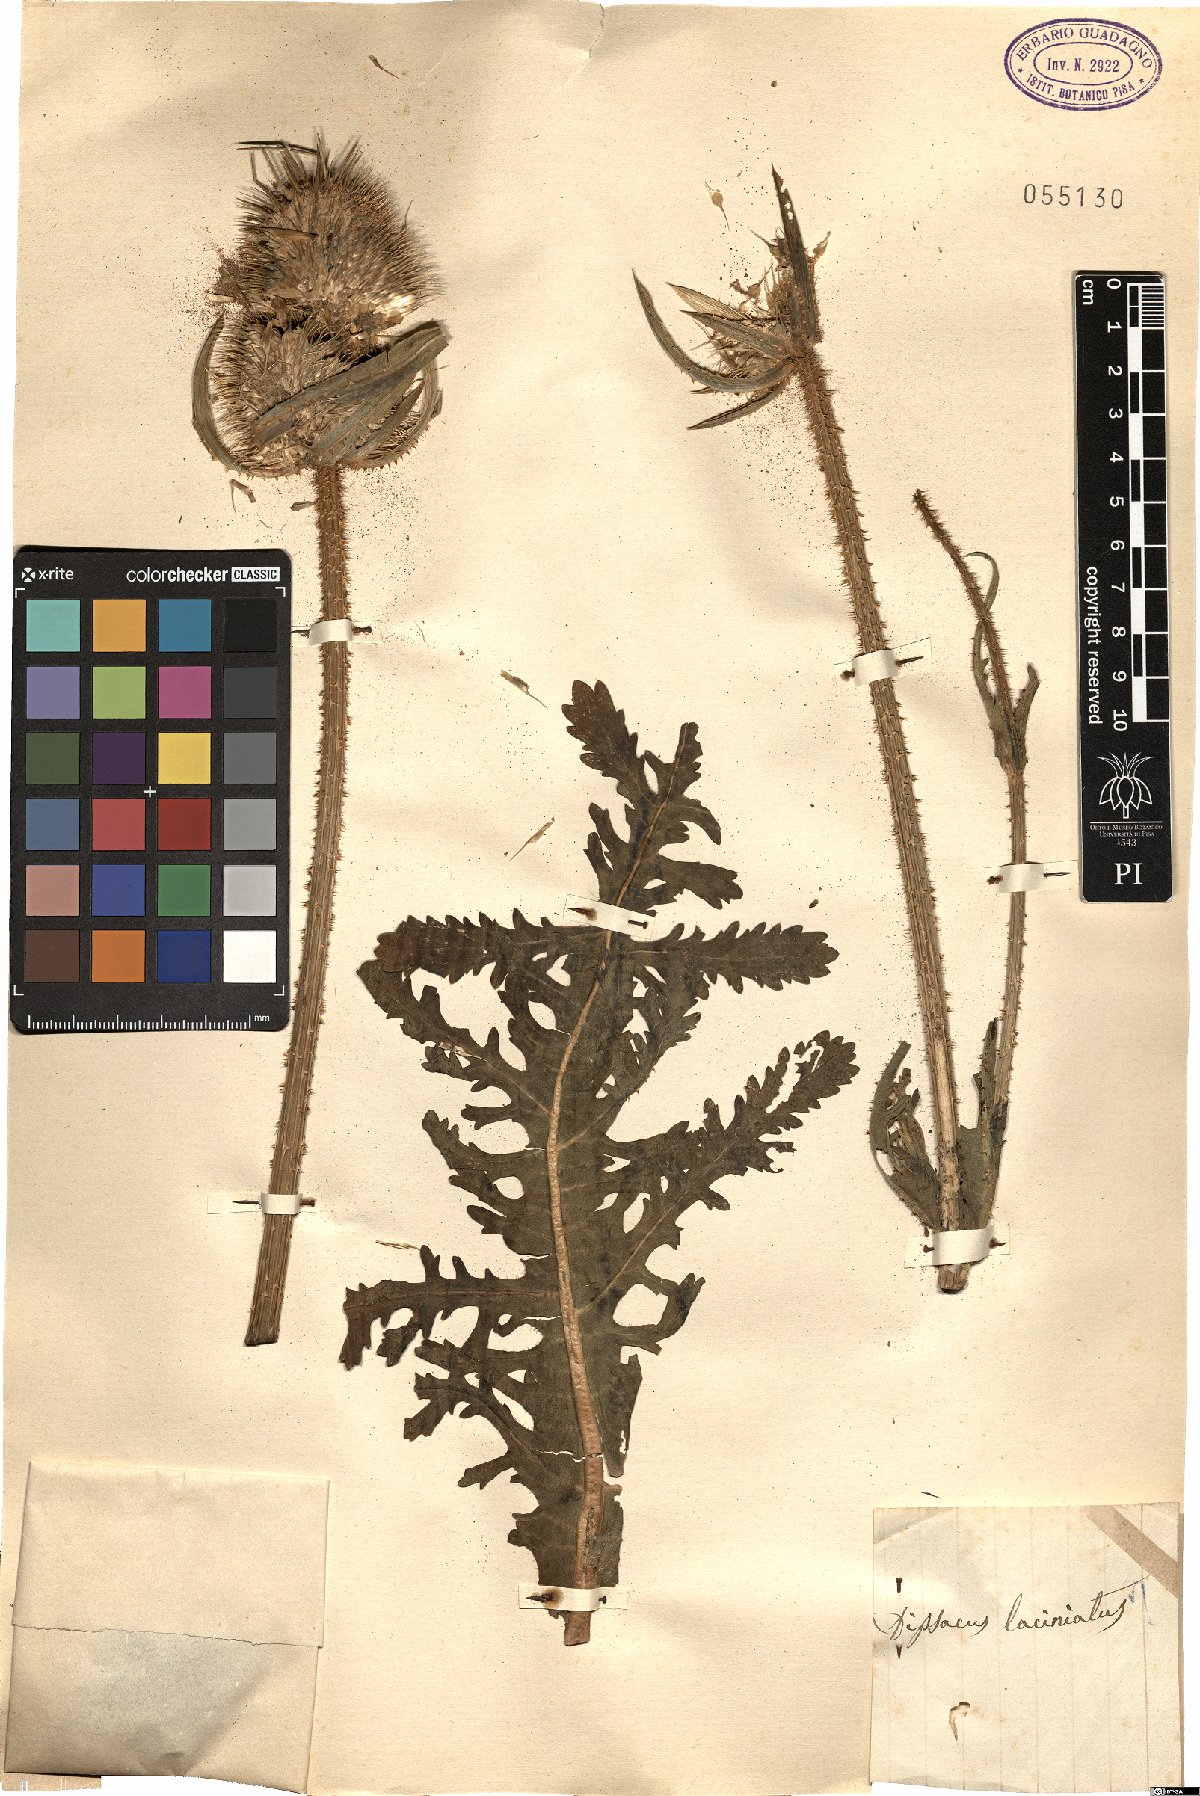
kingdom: Plantae
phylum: Tracheophyta
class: Magnoliopsida
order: Dipsacales
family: Caprifoliaceae
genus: Dipsacus
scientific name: Dipsacus laciniatus
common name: Cut-leaved teasel
